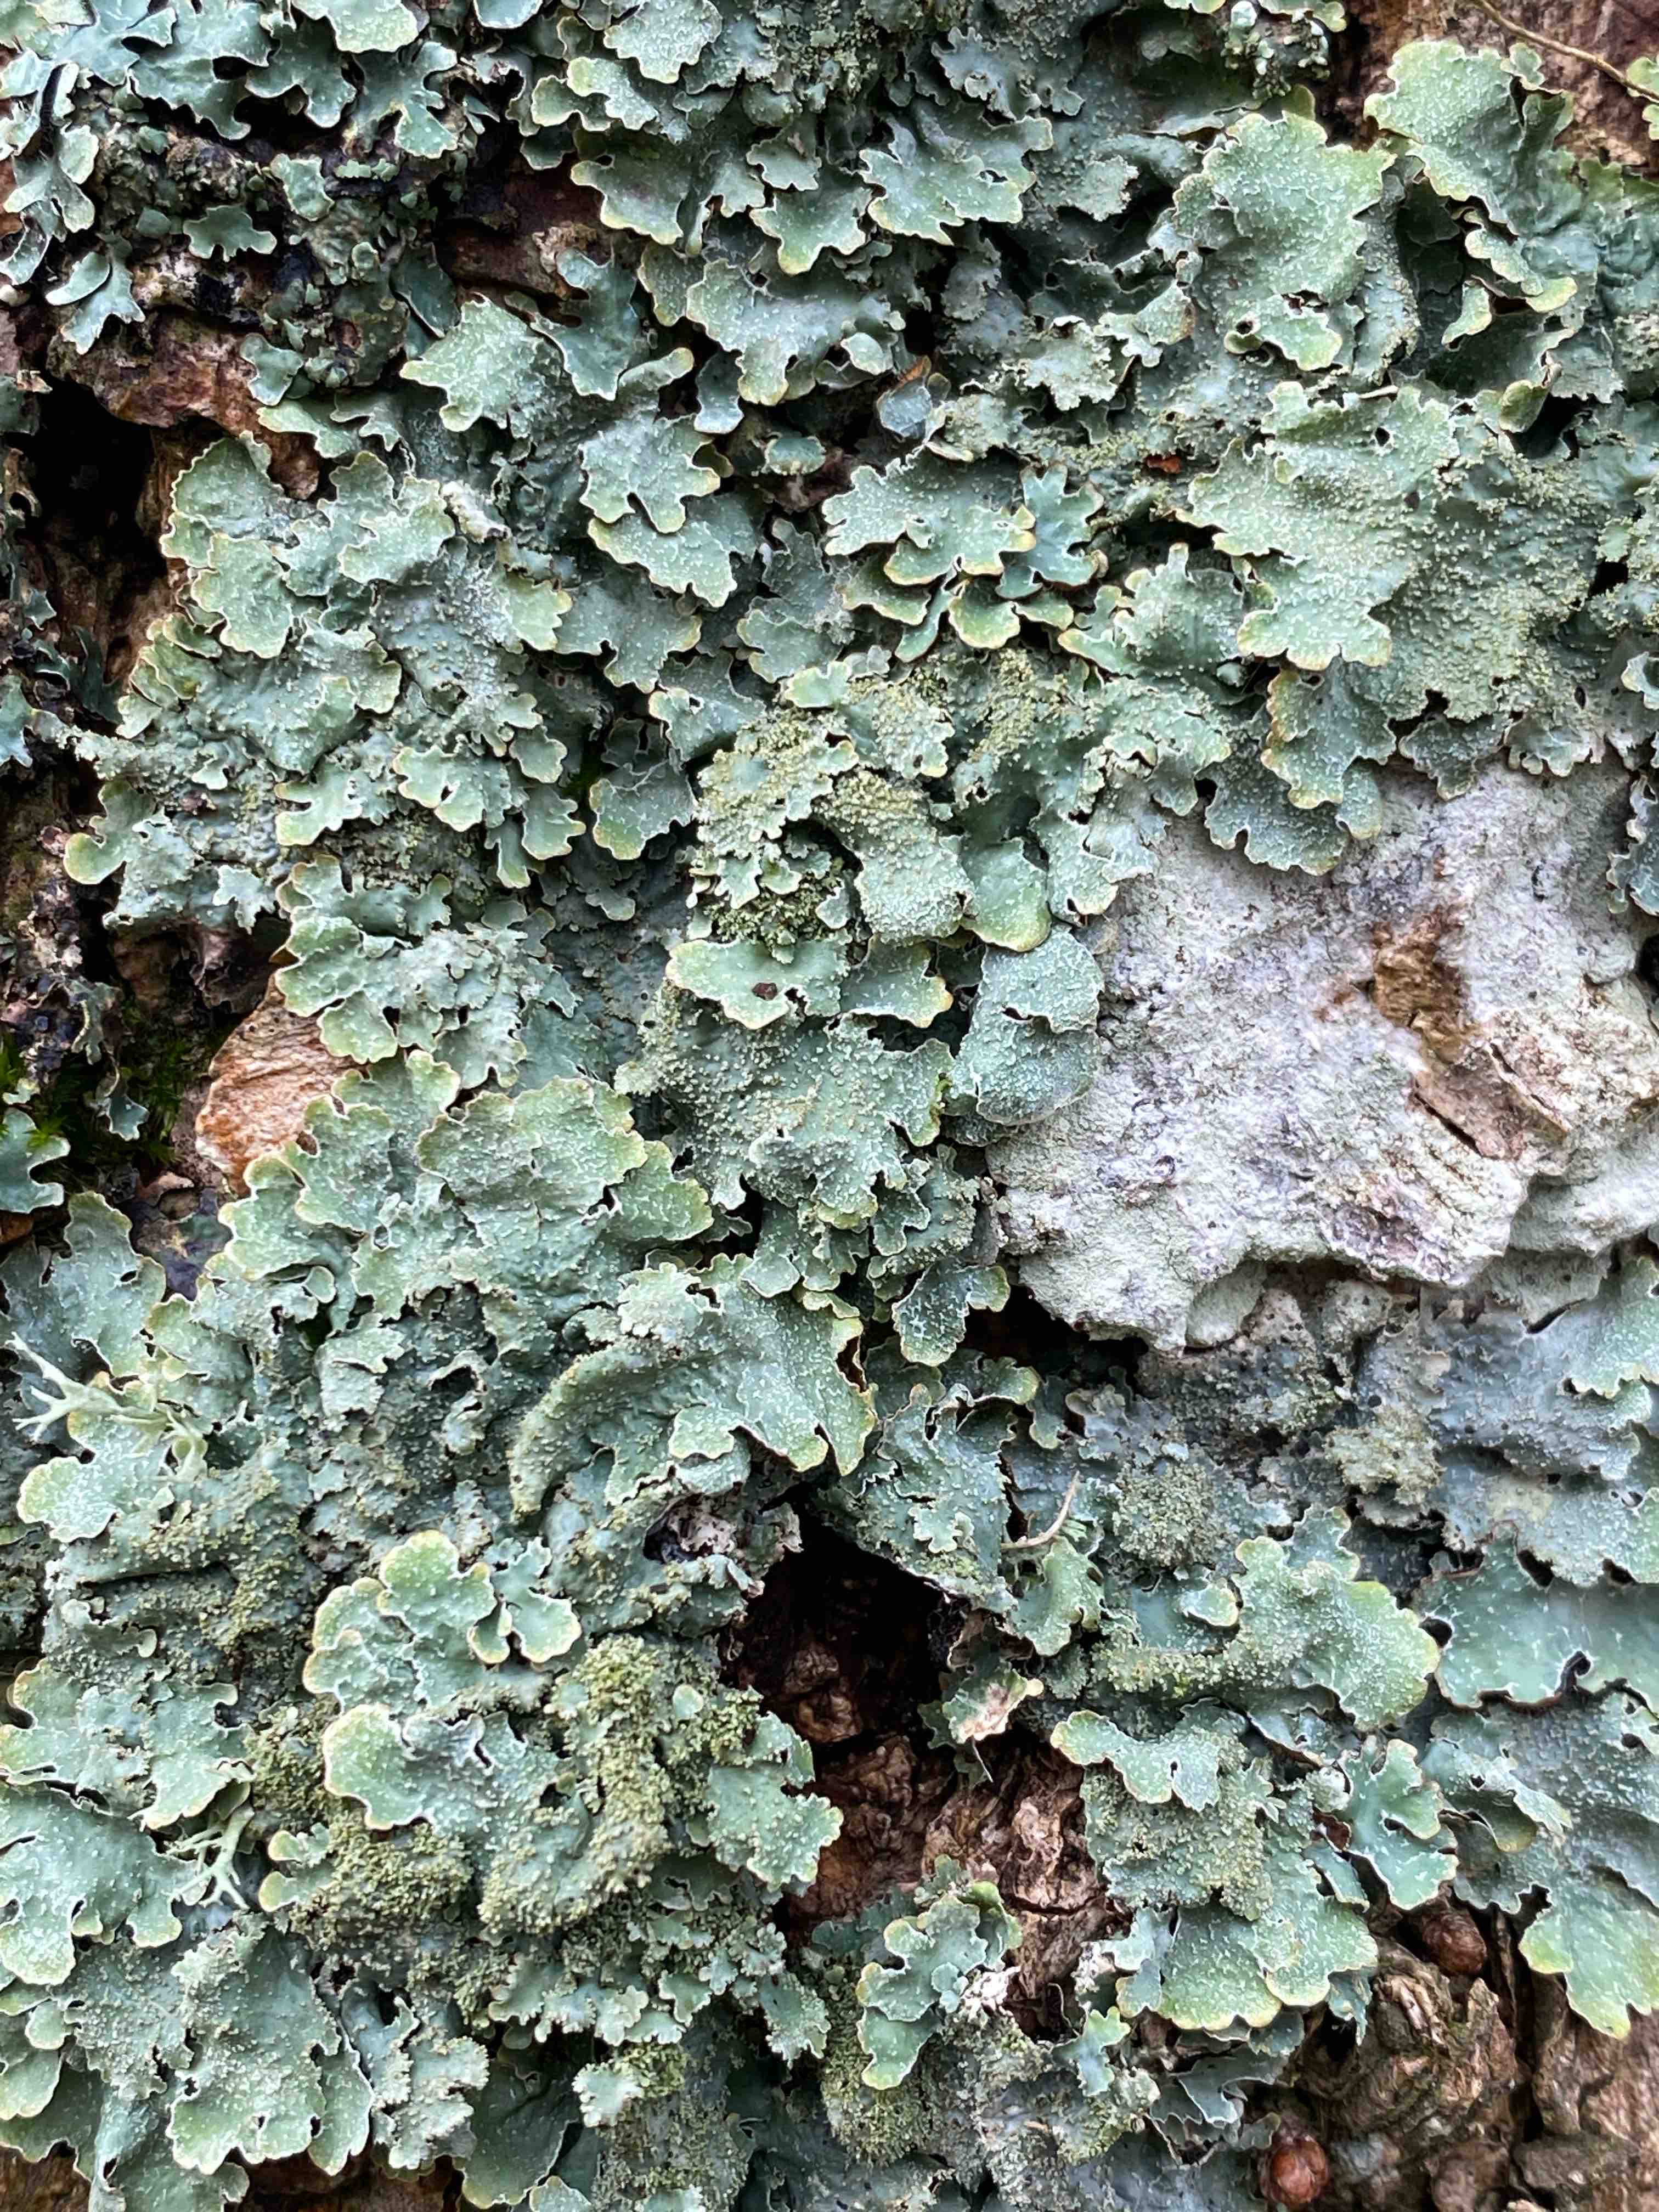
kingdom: Fungi
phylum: Ascomycota
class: Lecanoromycetes
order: Lecanorales
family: Parmeliaceae
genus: Parmelia
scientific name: Parmelia
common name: farve-skållav
